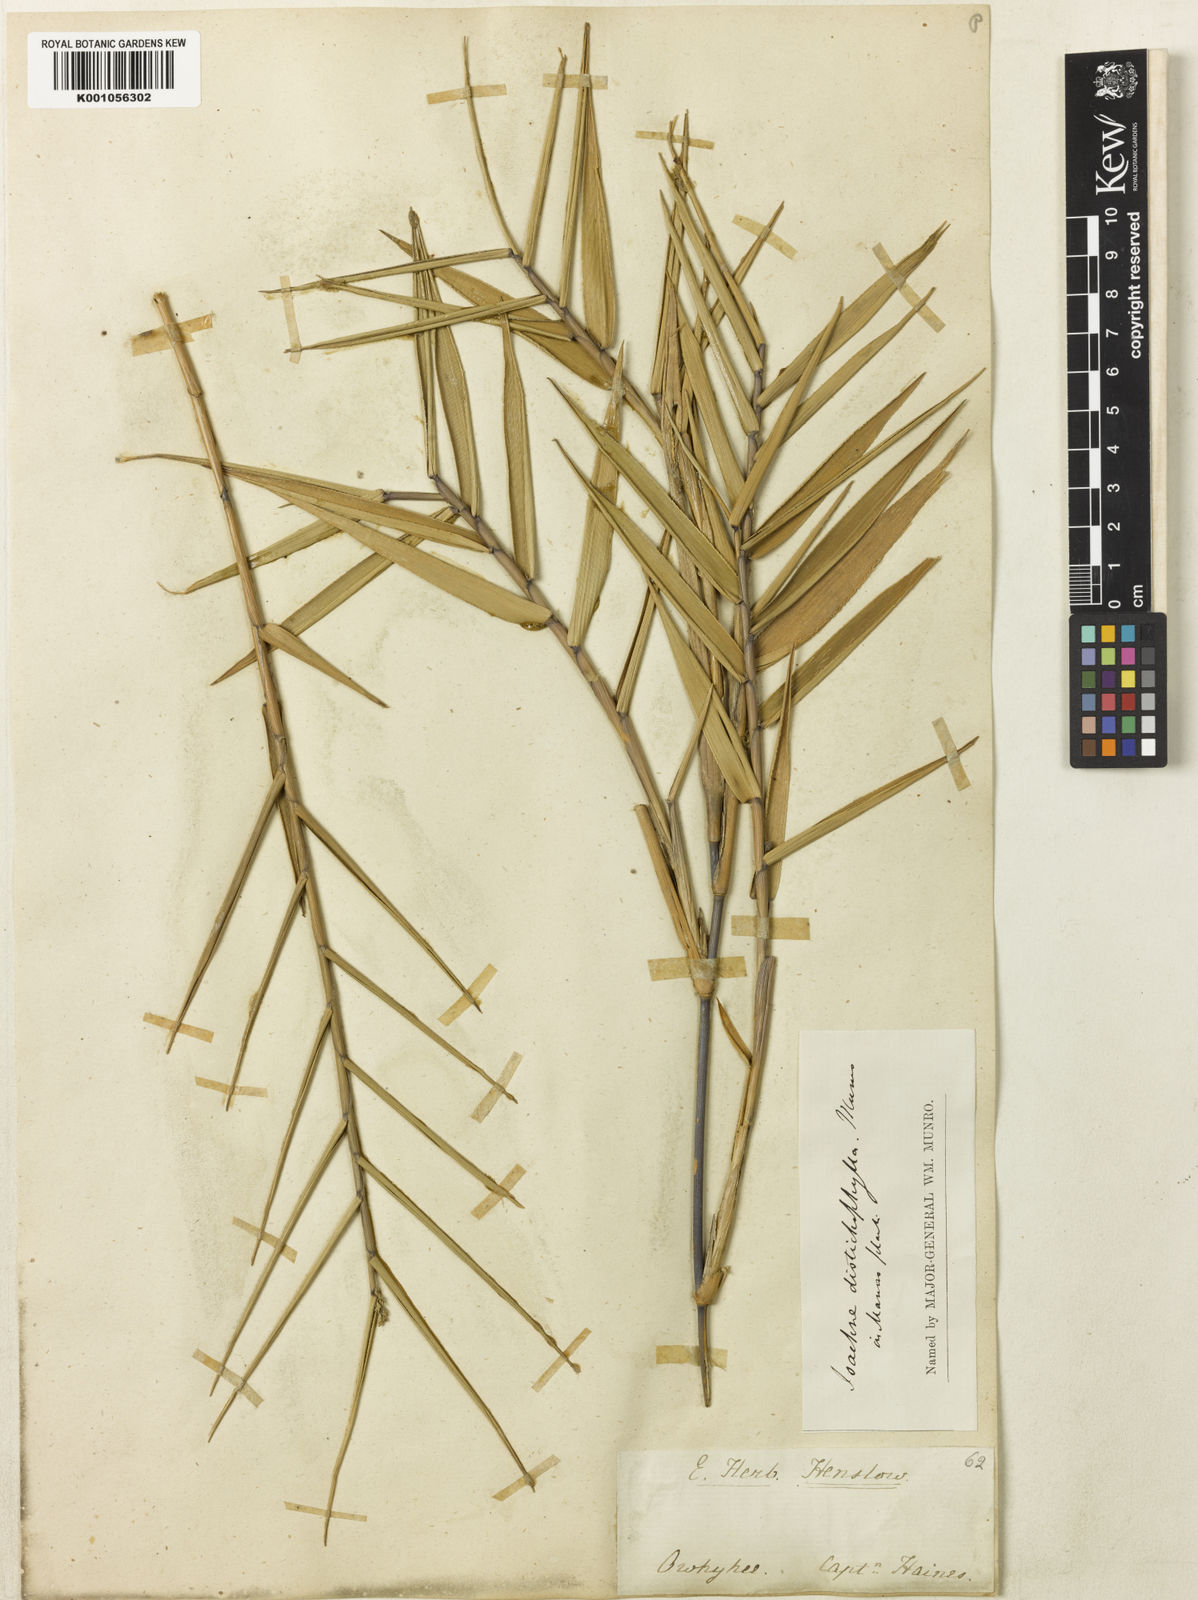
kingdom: Plantae
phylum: Tracheophyta
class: Liliopsida
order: Poales
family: Poaceae
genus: Isachne
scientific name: Isachne distichophylla
